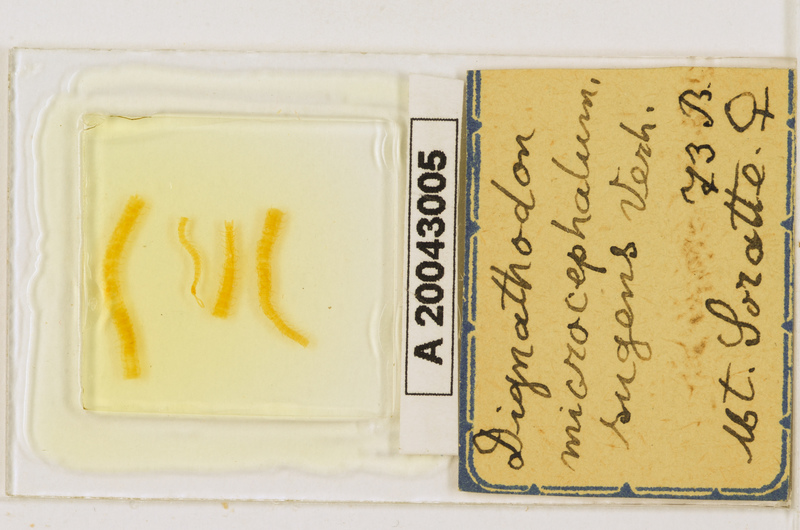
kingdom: Animalia
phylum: Arthropoda
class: Chilopoda
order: Geophilomorpha
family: Dignathodontidae
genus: Dignathodon
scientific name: Dignathodon microcephalus
